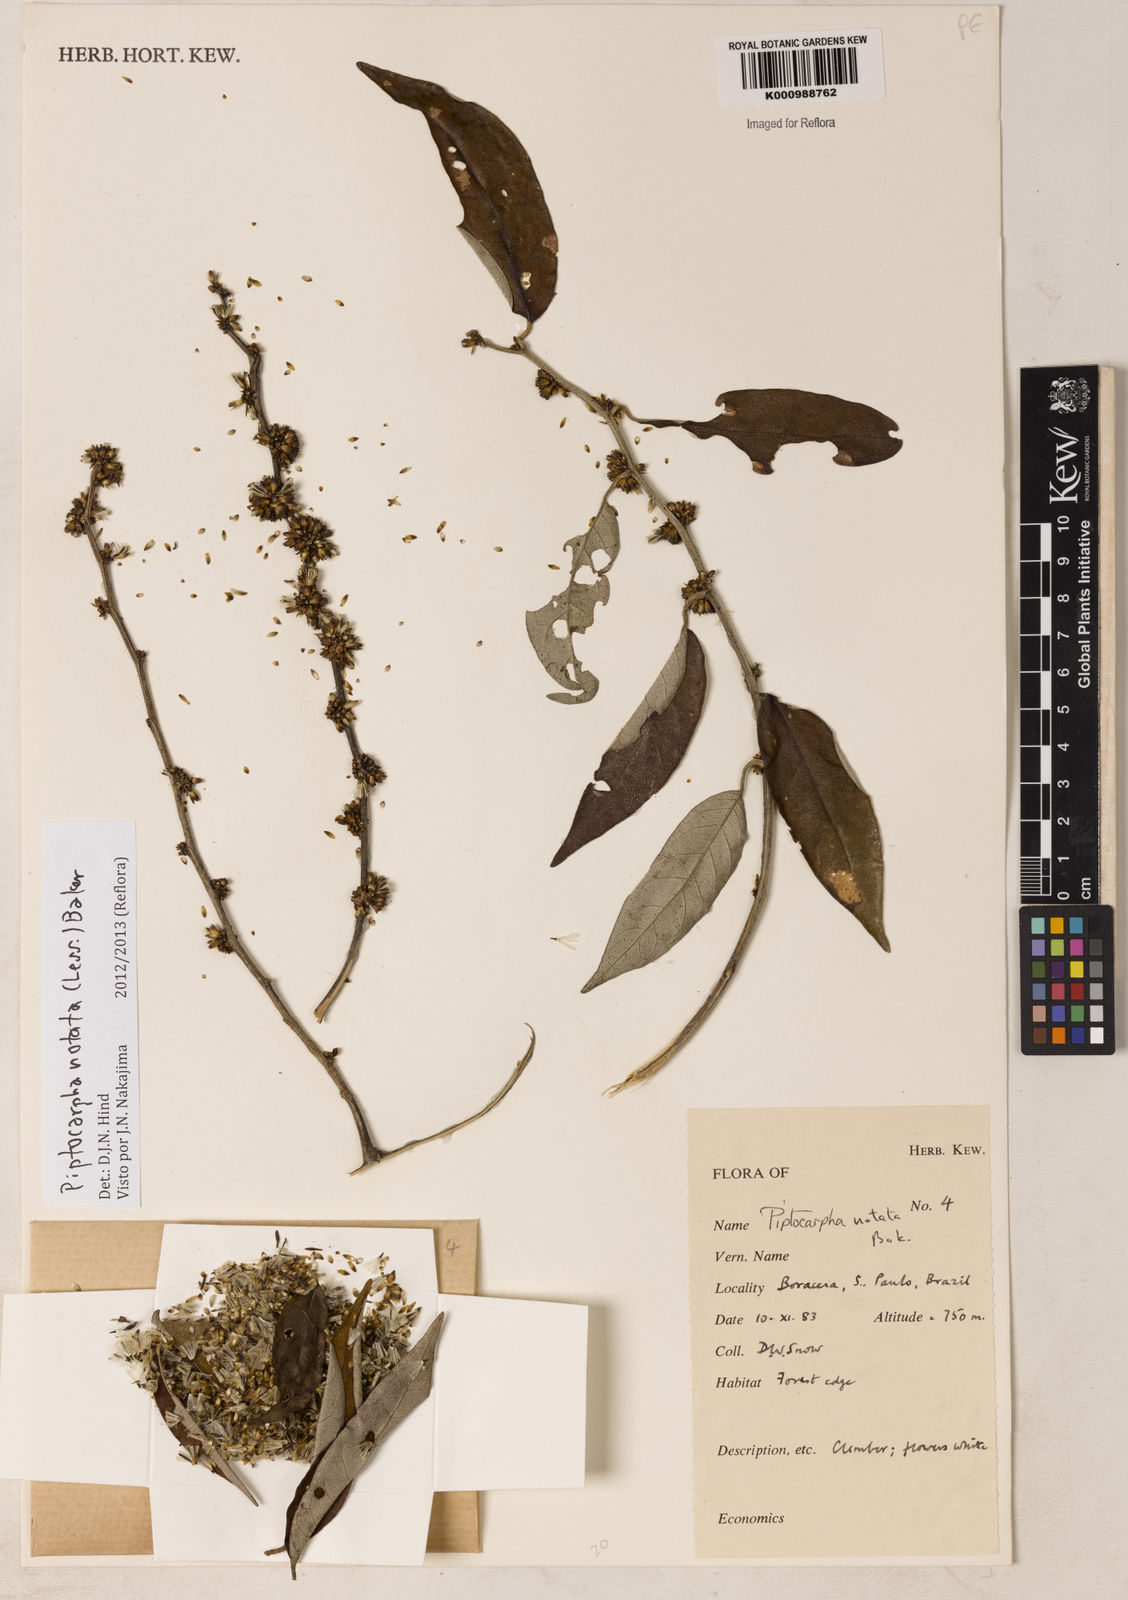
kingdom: Plantae
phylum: Tracheophyta
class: Magnoliopsida
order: Asterales
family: Asteraceae
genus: Piptocarpha
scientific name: Piptocarpha notata
